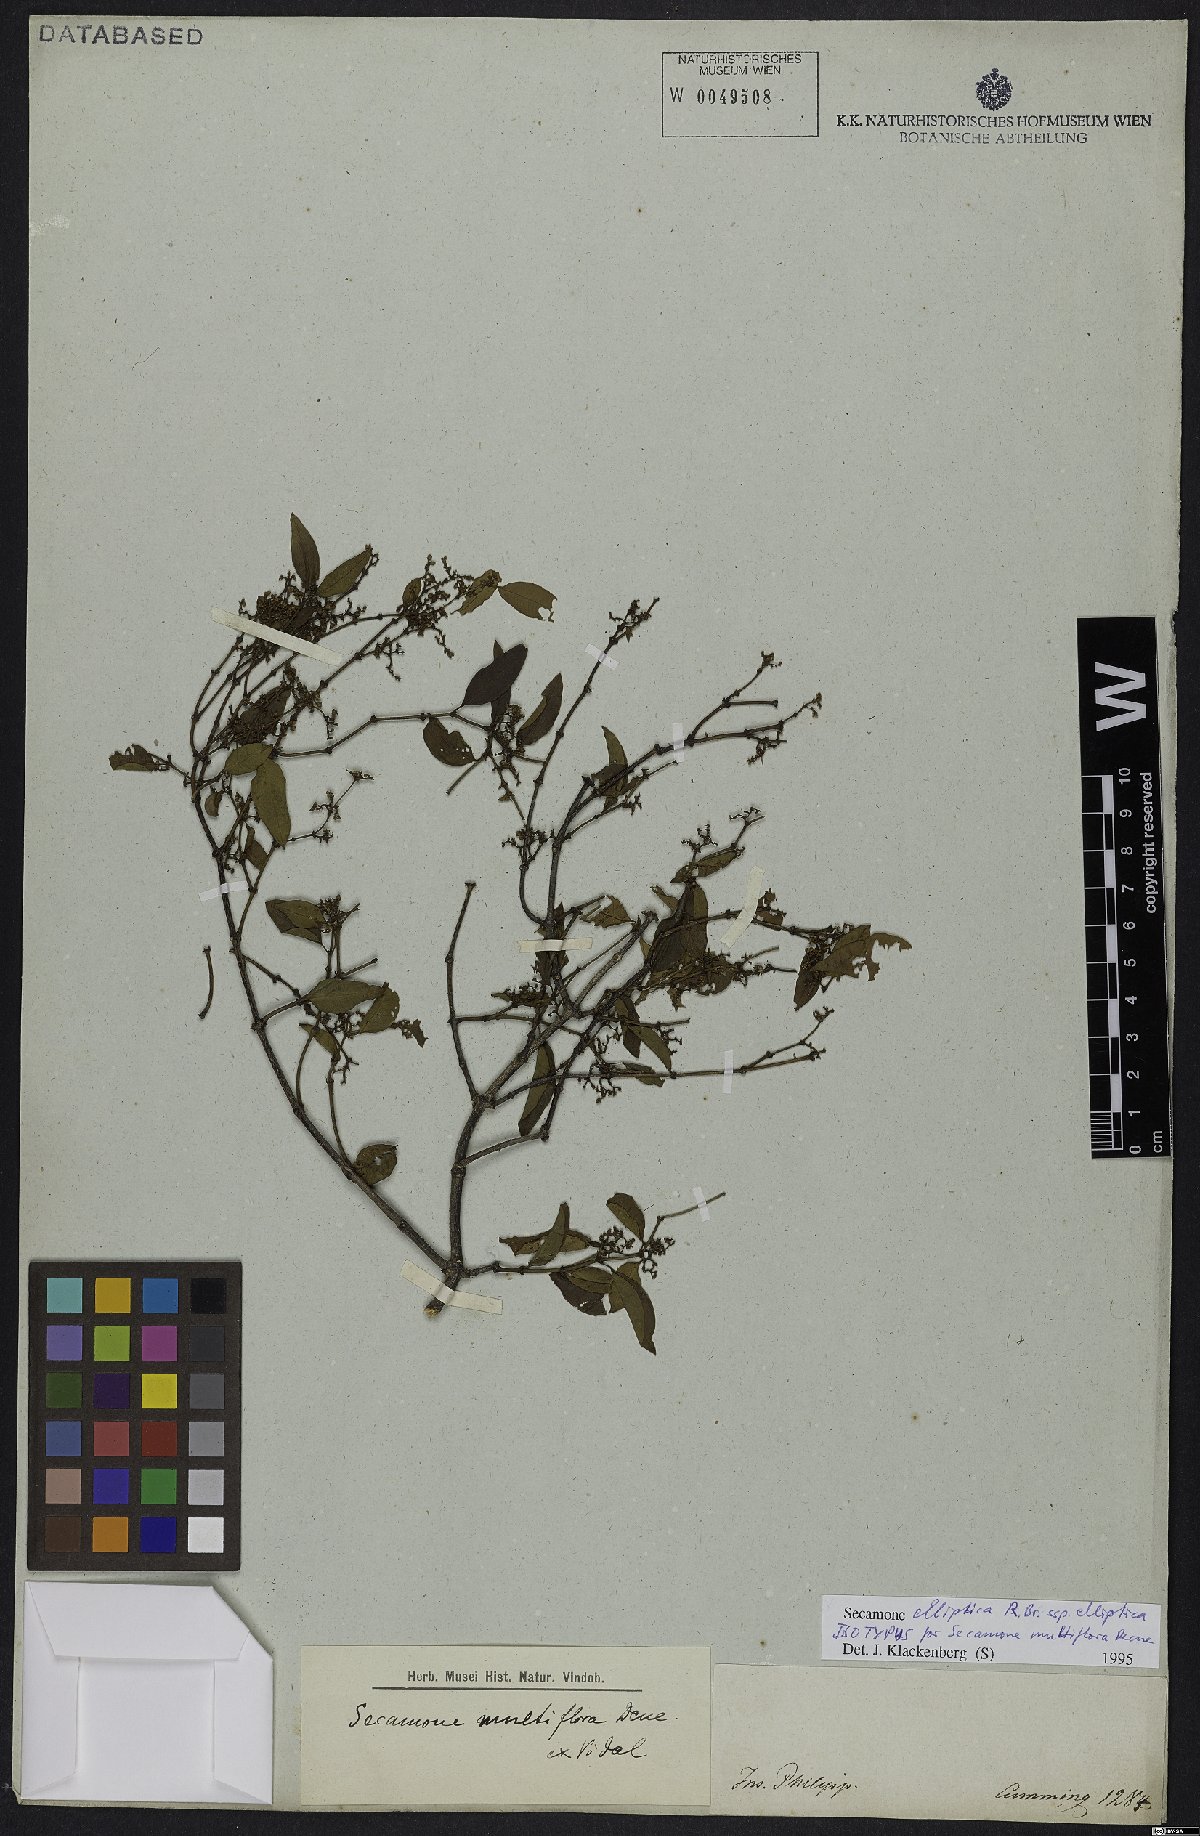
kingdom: Plantae
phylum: Tracheophyta
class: Magnoliopsida
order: Gentianales
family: Apocynaceae
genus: Secamone
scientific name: Secamone elliptica
